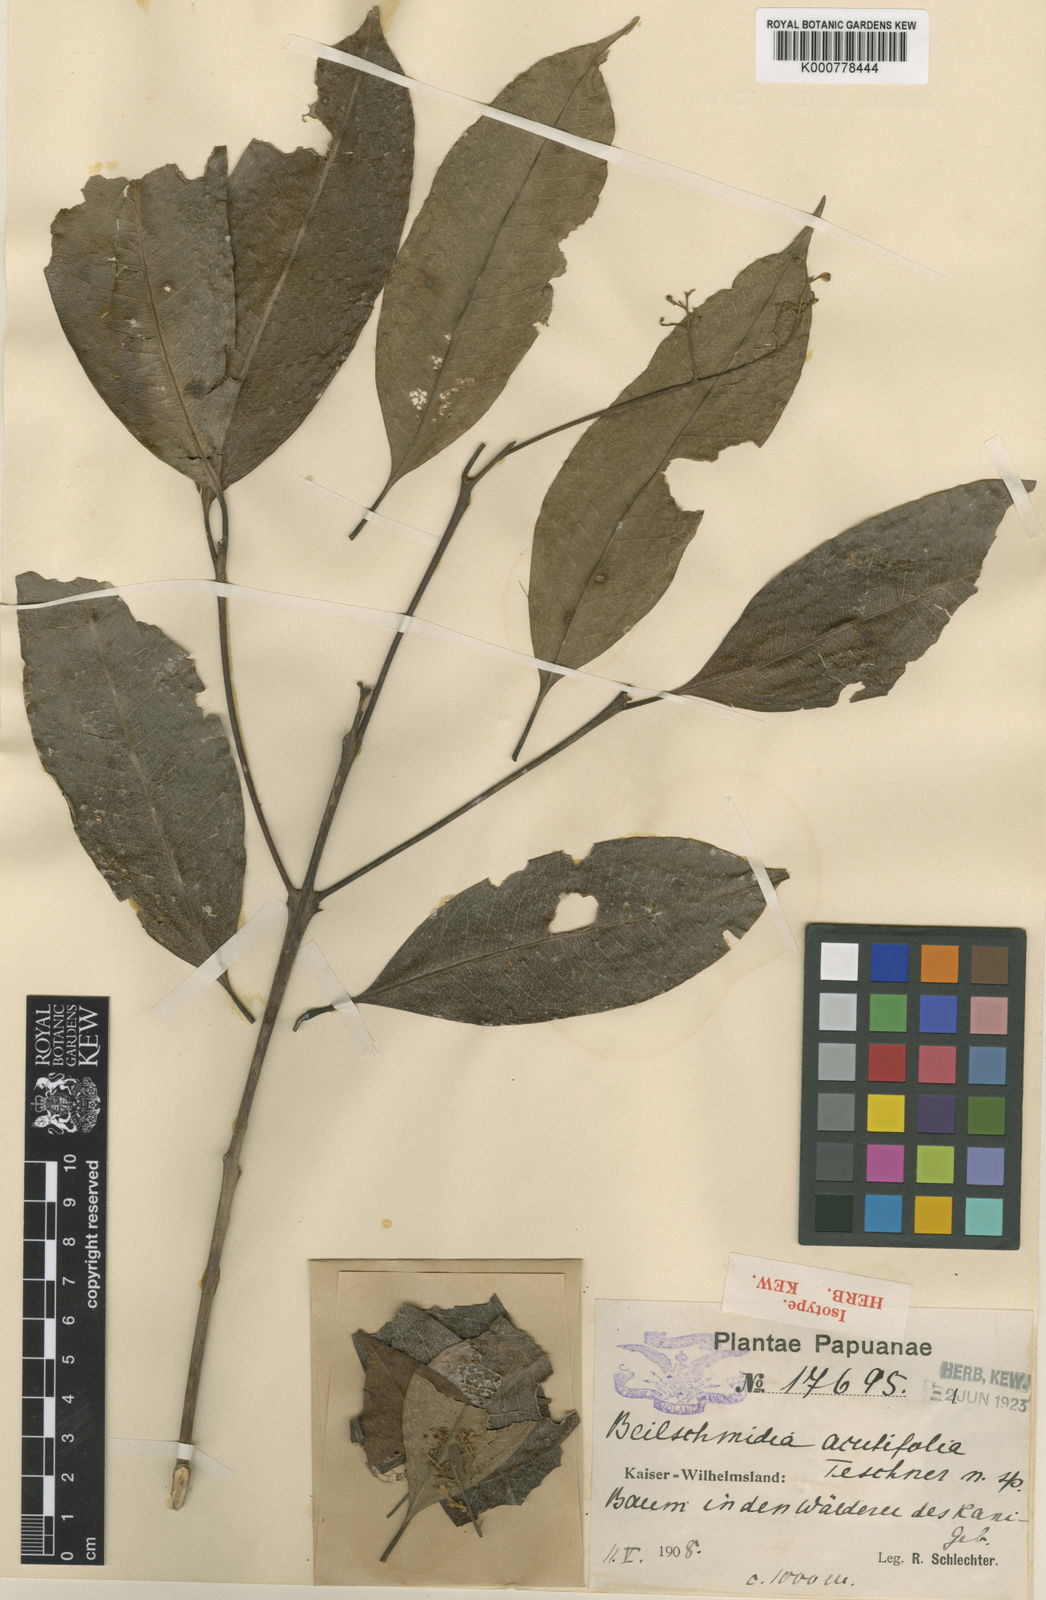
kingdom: Plantae
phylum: Tracheophyta
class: Magnoliopsida
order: Laurales
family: Lauraceae
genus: Beilschmiedia
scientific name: Beilschmiedia acutifolia
